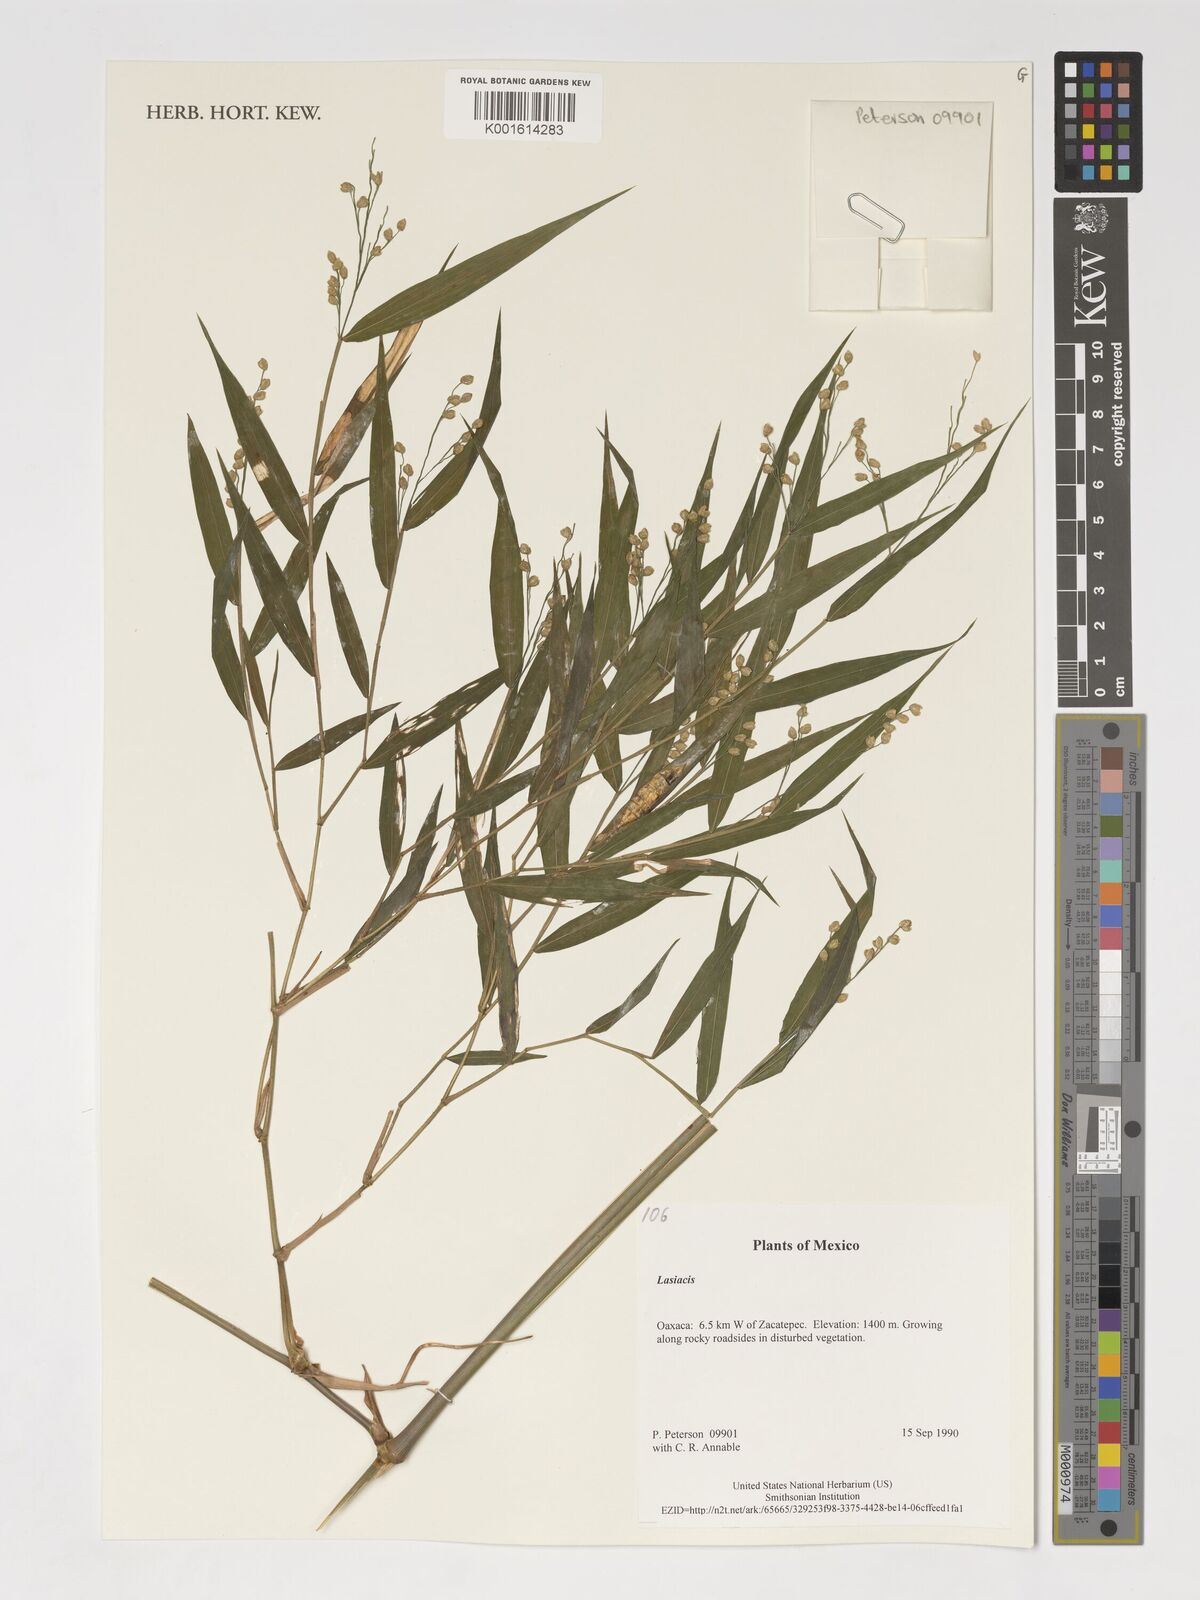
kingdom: Plantae
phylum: Tracheophyta
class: Liliopsida
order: Poales
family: Poaceae
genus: Lasiacis
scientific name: Lasiacis
